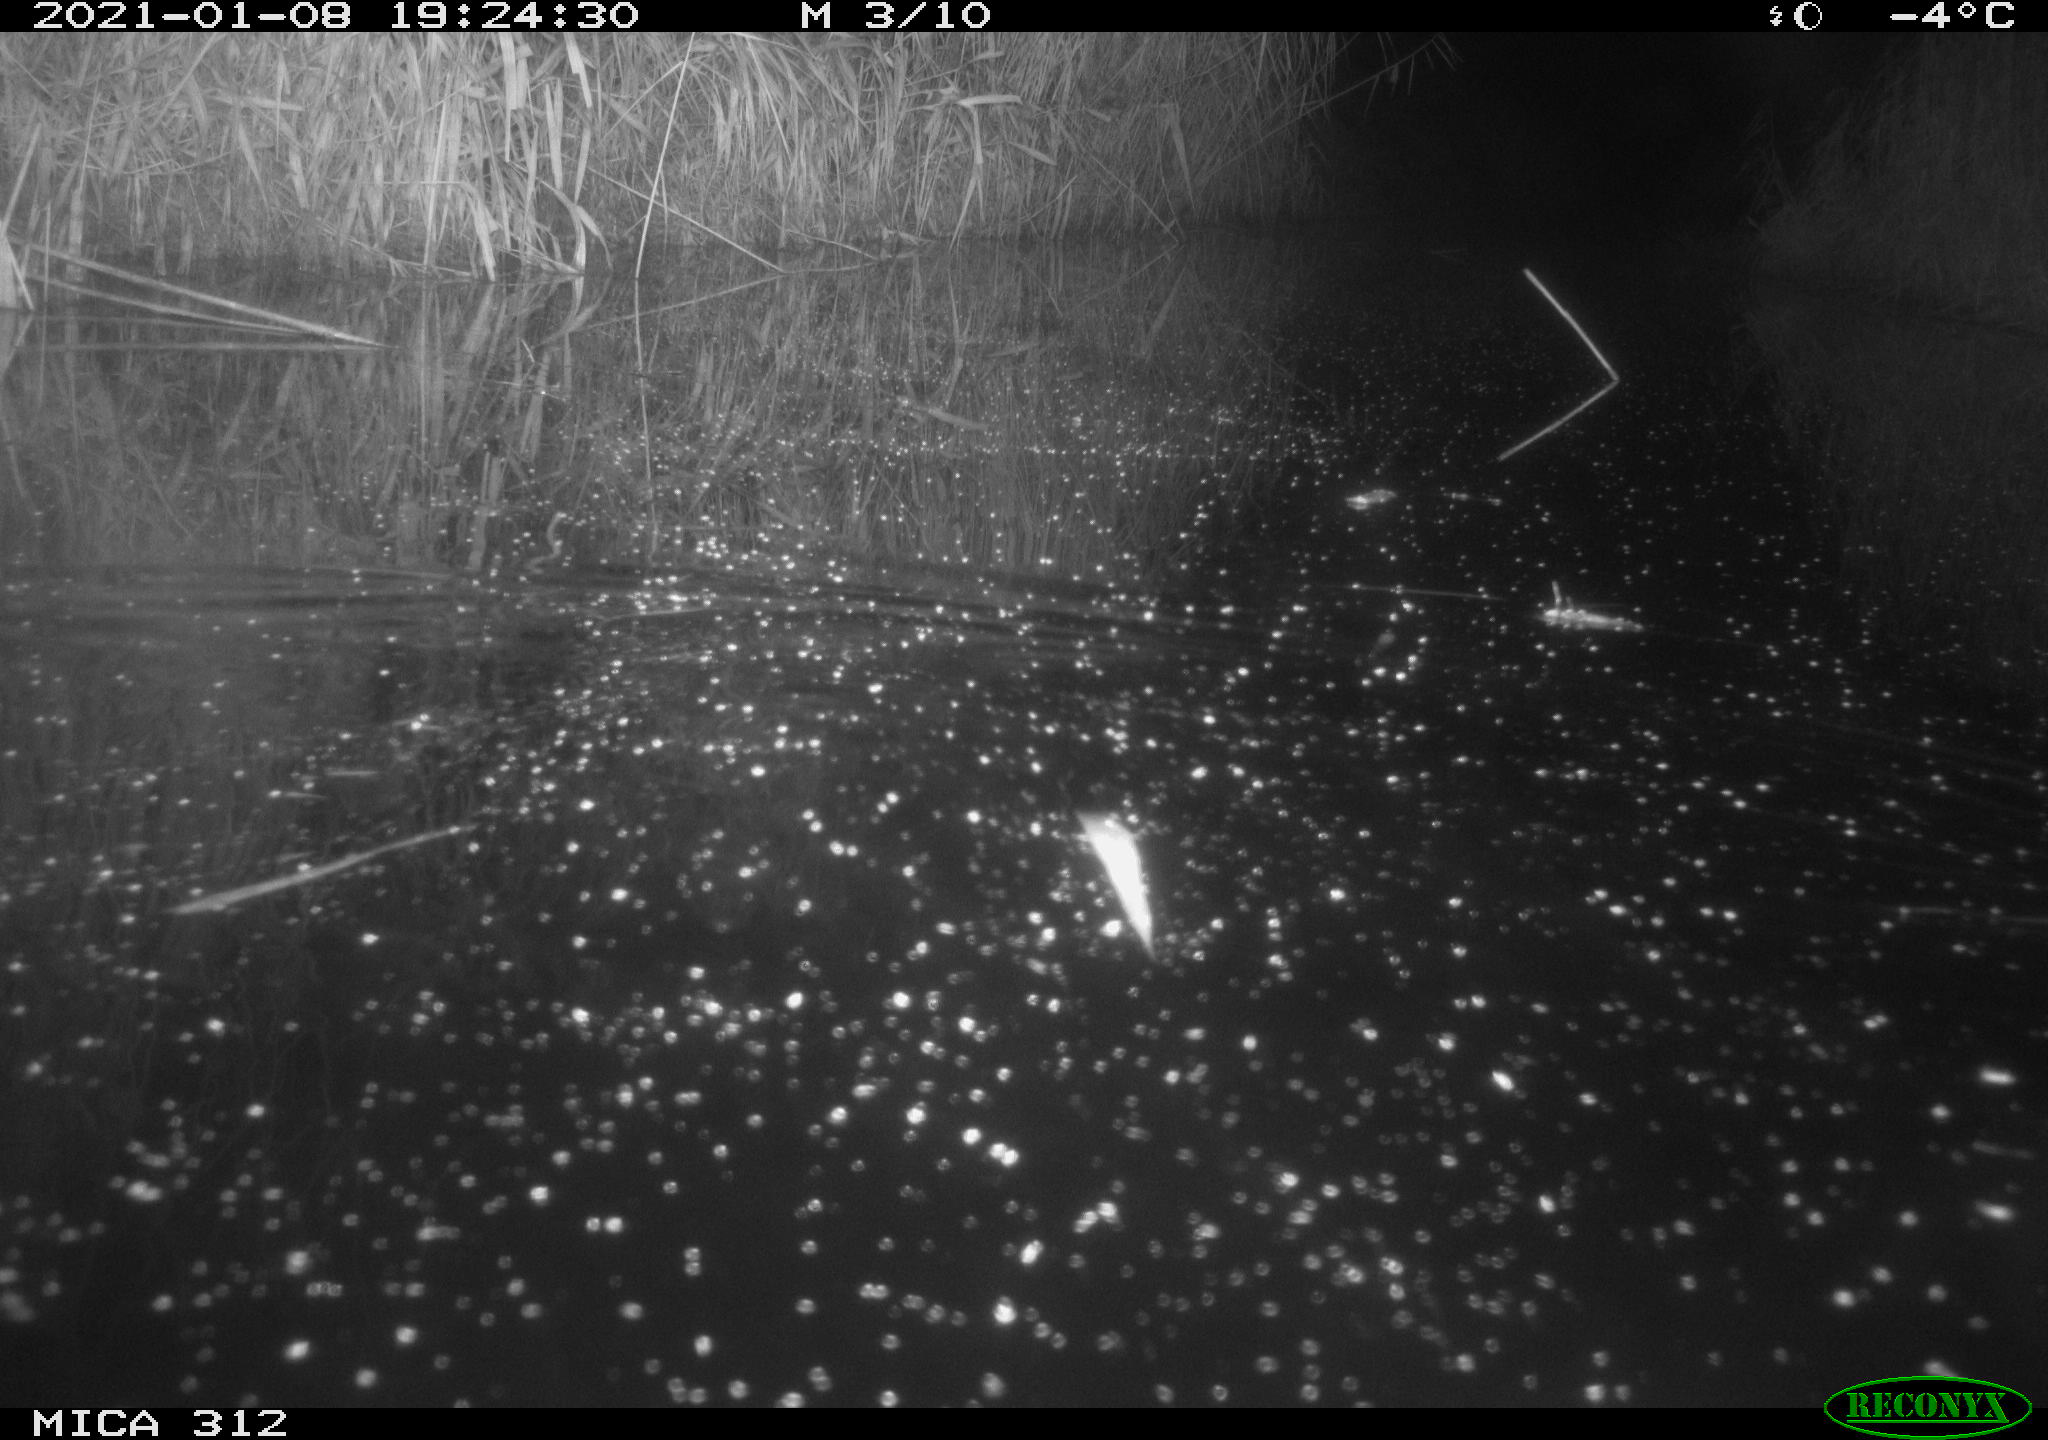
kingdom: Animalia
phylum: Chordata
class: Mammalia
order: Rodentia
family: Muridae
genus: Rattus
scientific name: Rattus norvegicus
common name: Brown rat
